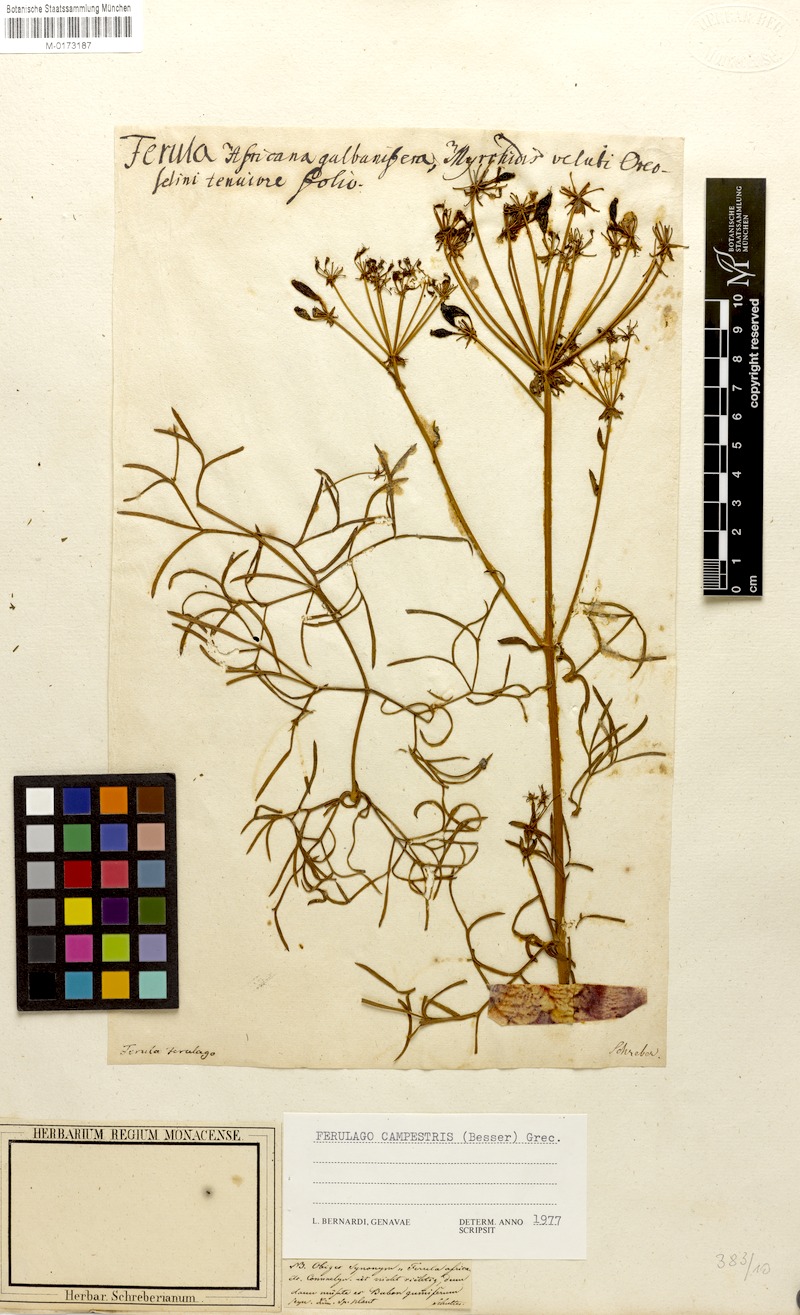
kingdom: Plantae
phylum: Tracheophyta
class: Magnoliopsida
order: Apiales
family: Apiaceae
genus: Ferulago
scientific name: Ferulago galbanifera
